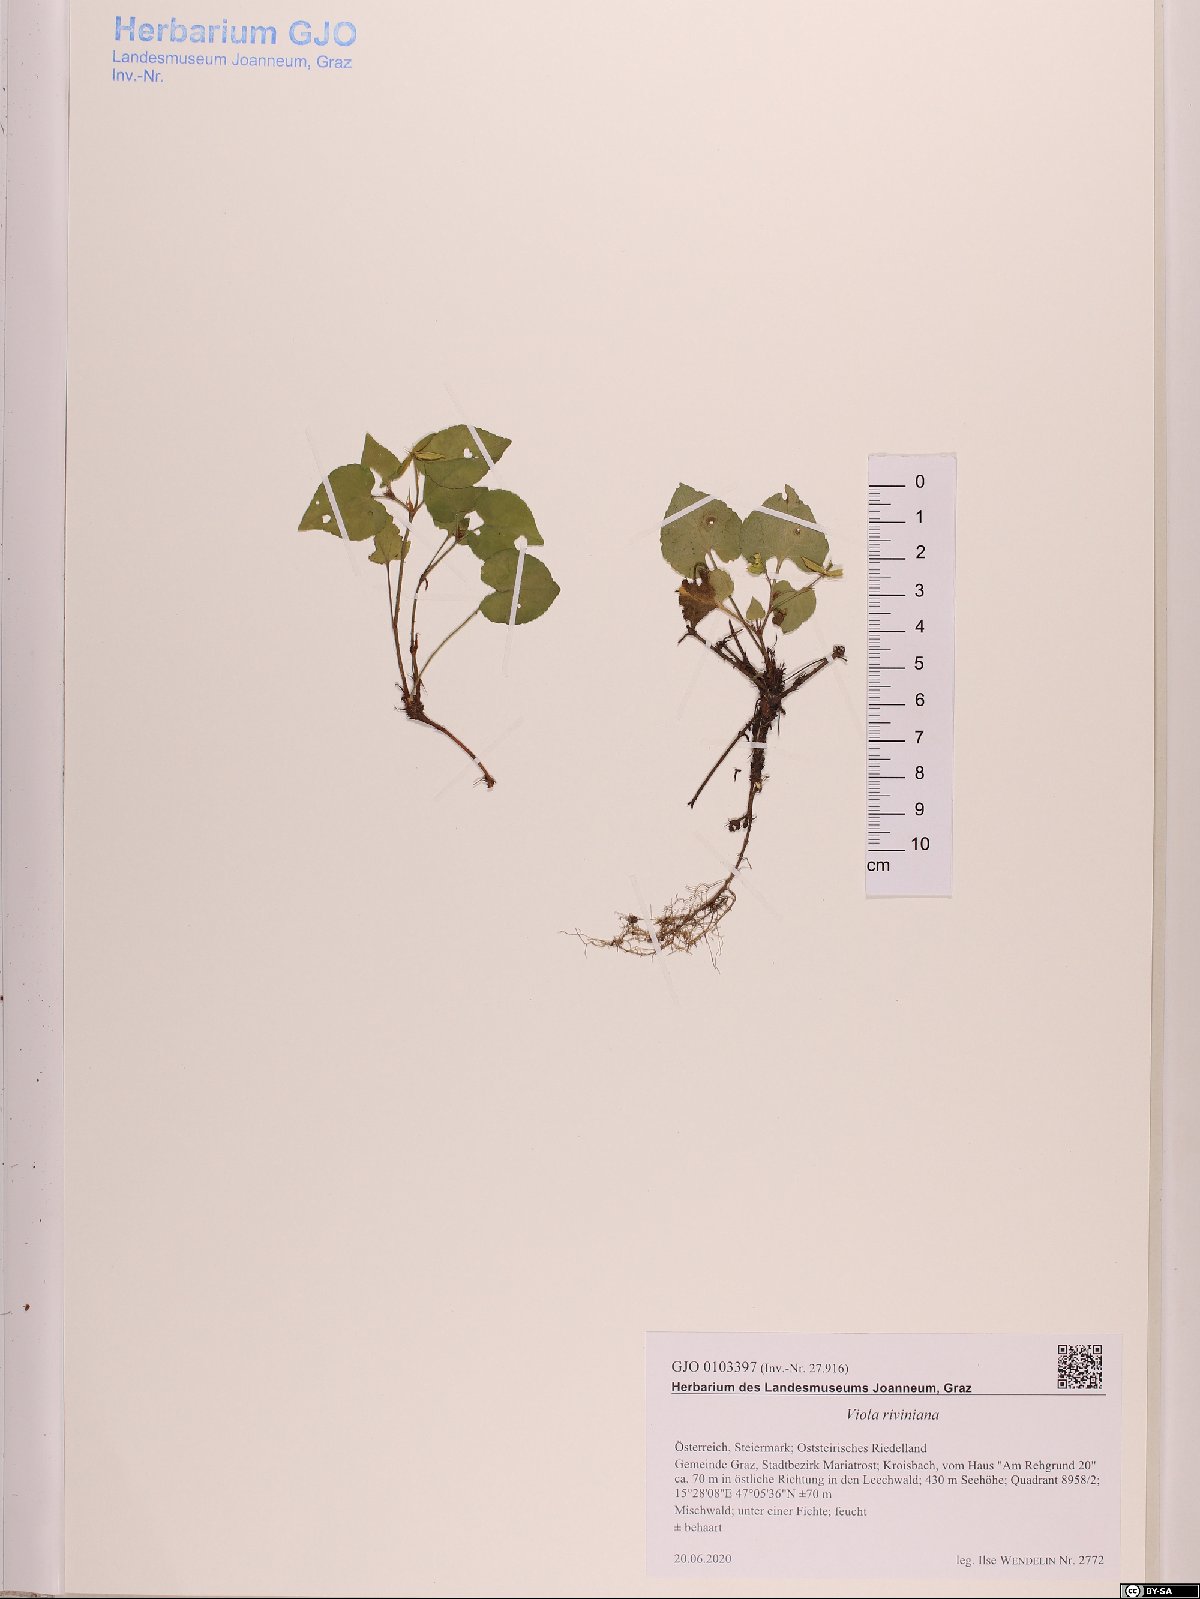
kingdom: Plantae
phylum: Tracheophyta
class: Magnoliopsida
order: Malpighiales
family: Violaceae
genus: Viola
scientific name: Viola riviniana
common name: Common dog-violet
